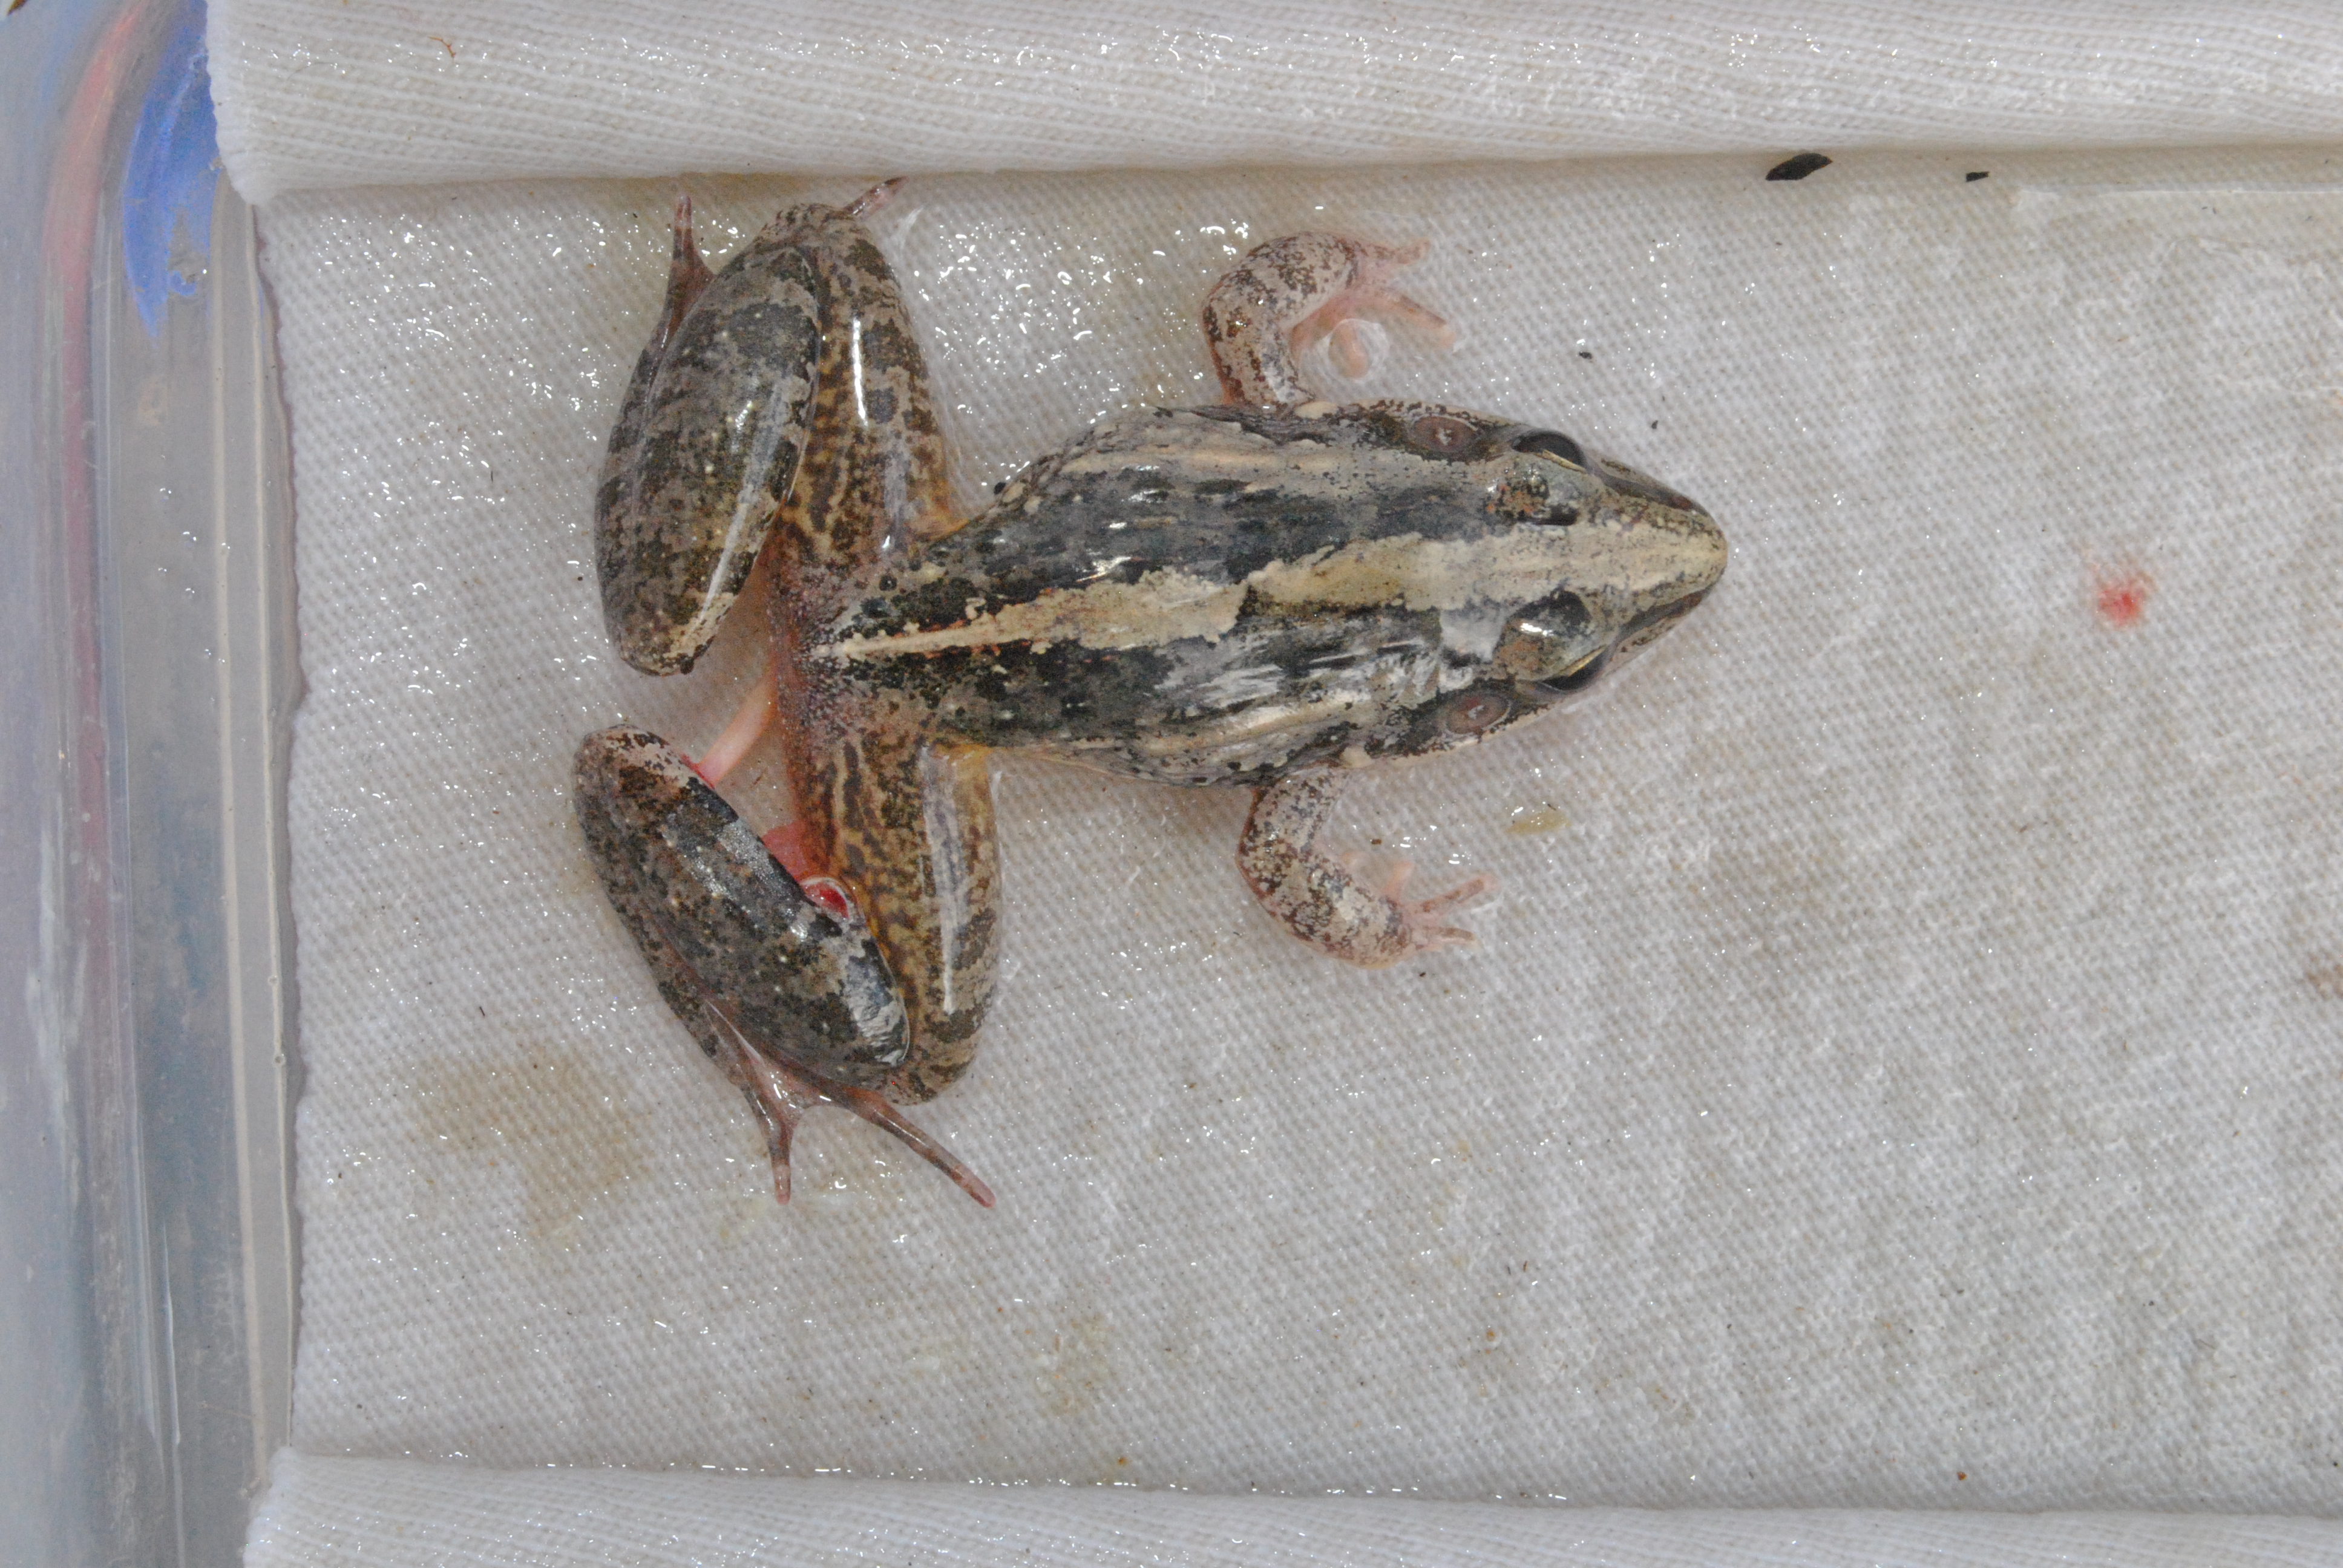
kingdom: Animalia
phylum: Chordata
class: Amphibia
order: Anura
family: Ptychadenidae
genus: Ptychadena
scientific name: Ptychadena schillukorum
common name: Sudan grassland frog
